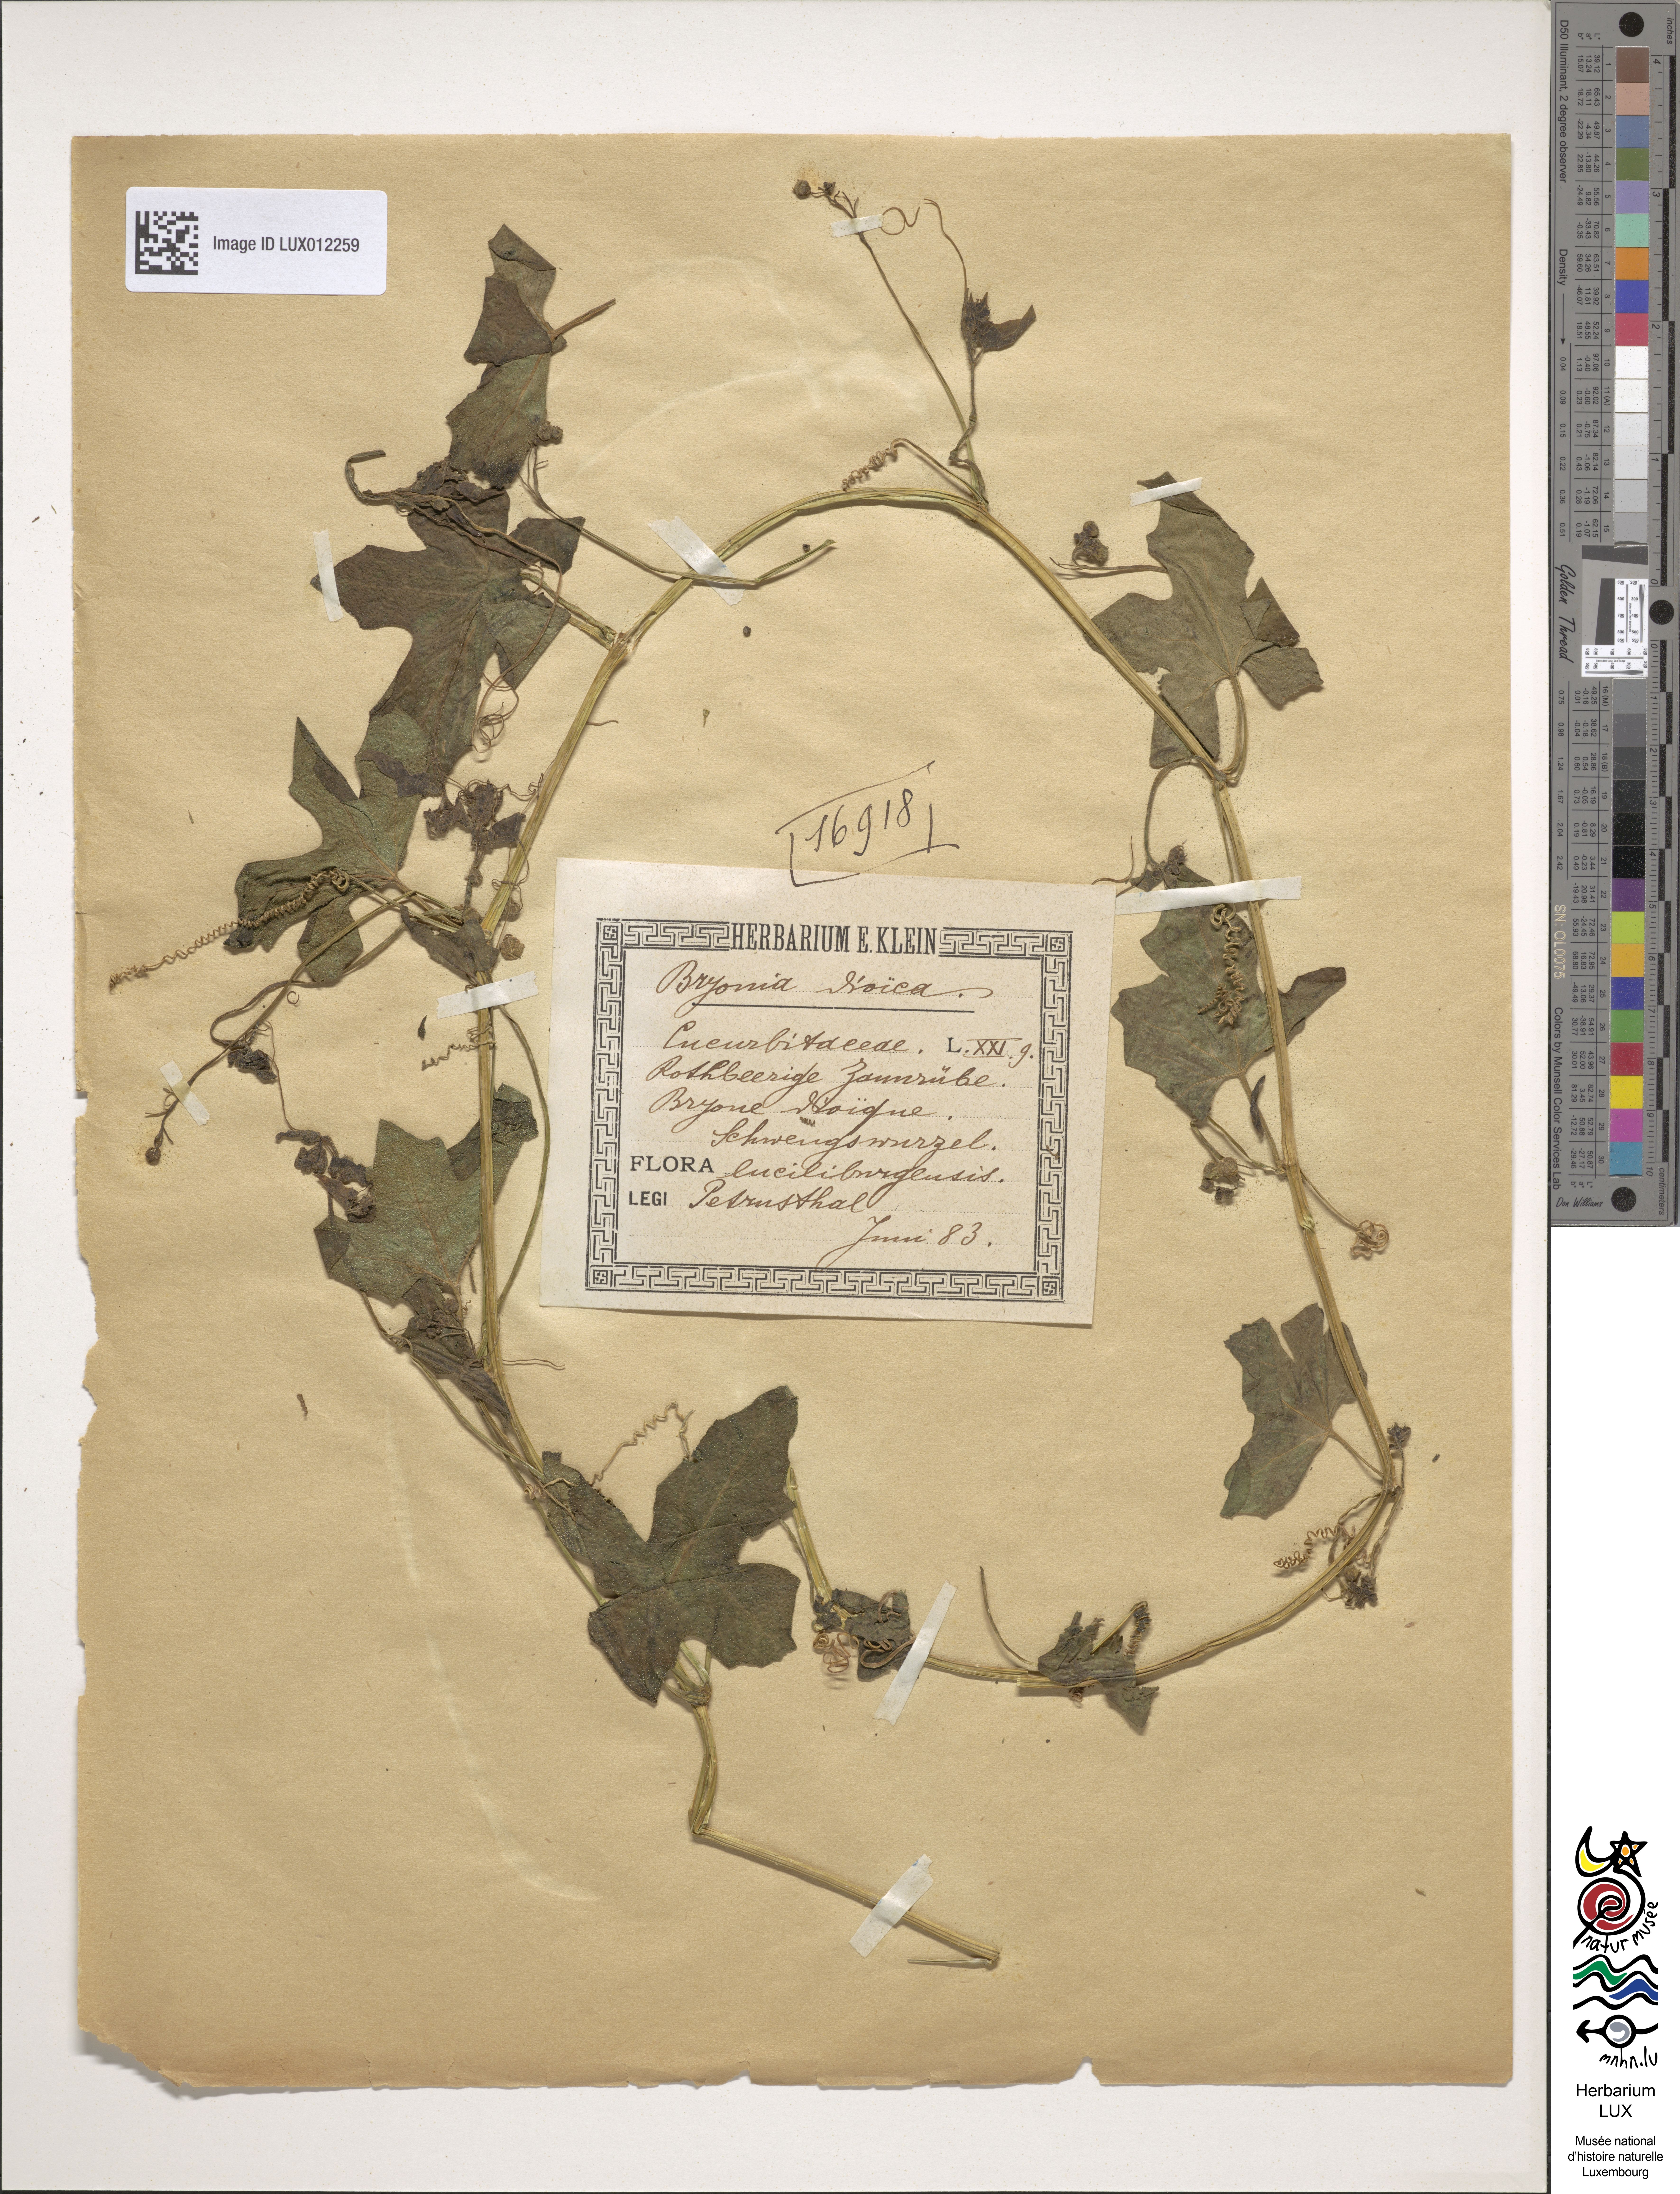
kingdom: Plantae
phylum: Tracheophyta
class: Magnoliopsida
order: Cucurbitales
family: Cucurbitaceae
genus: Bryonia
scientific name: Bryonia dioica
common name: White bryony
